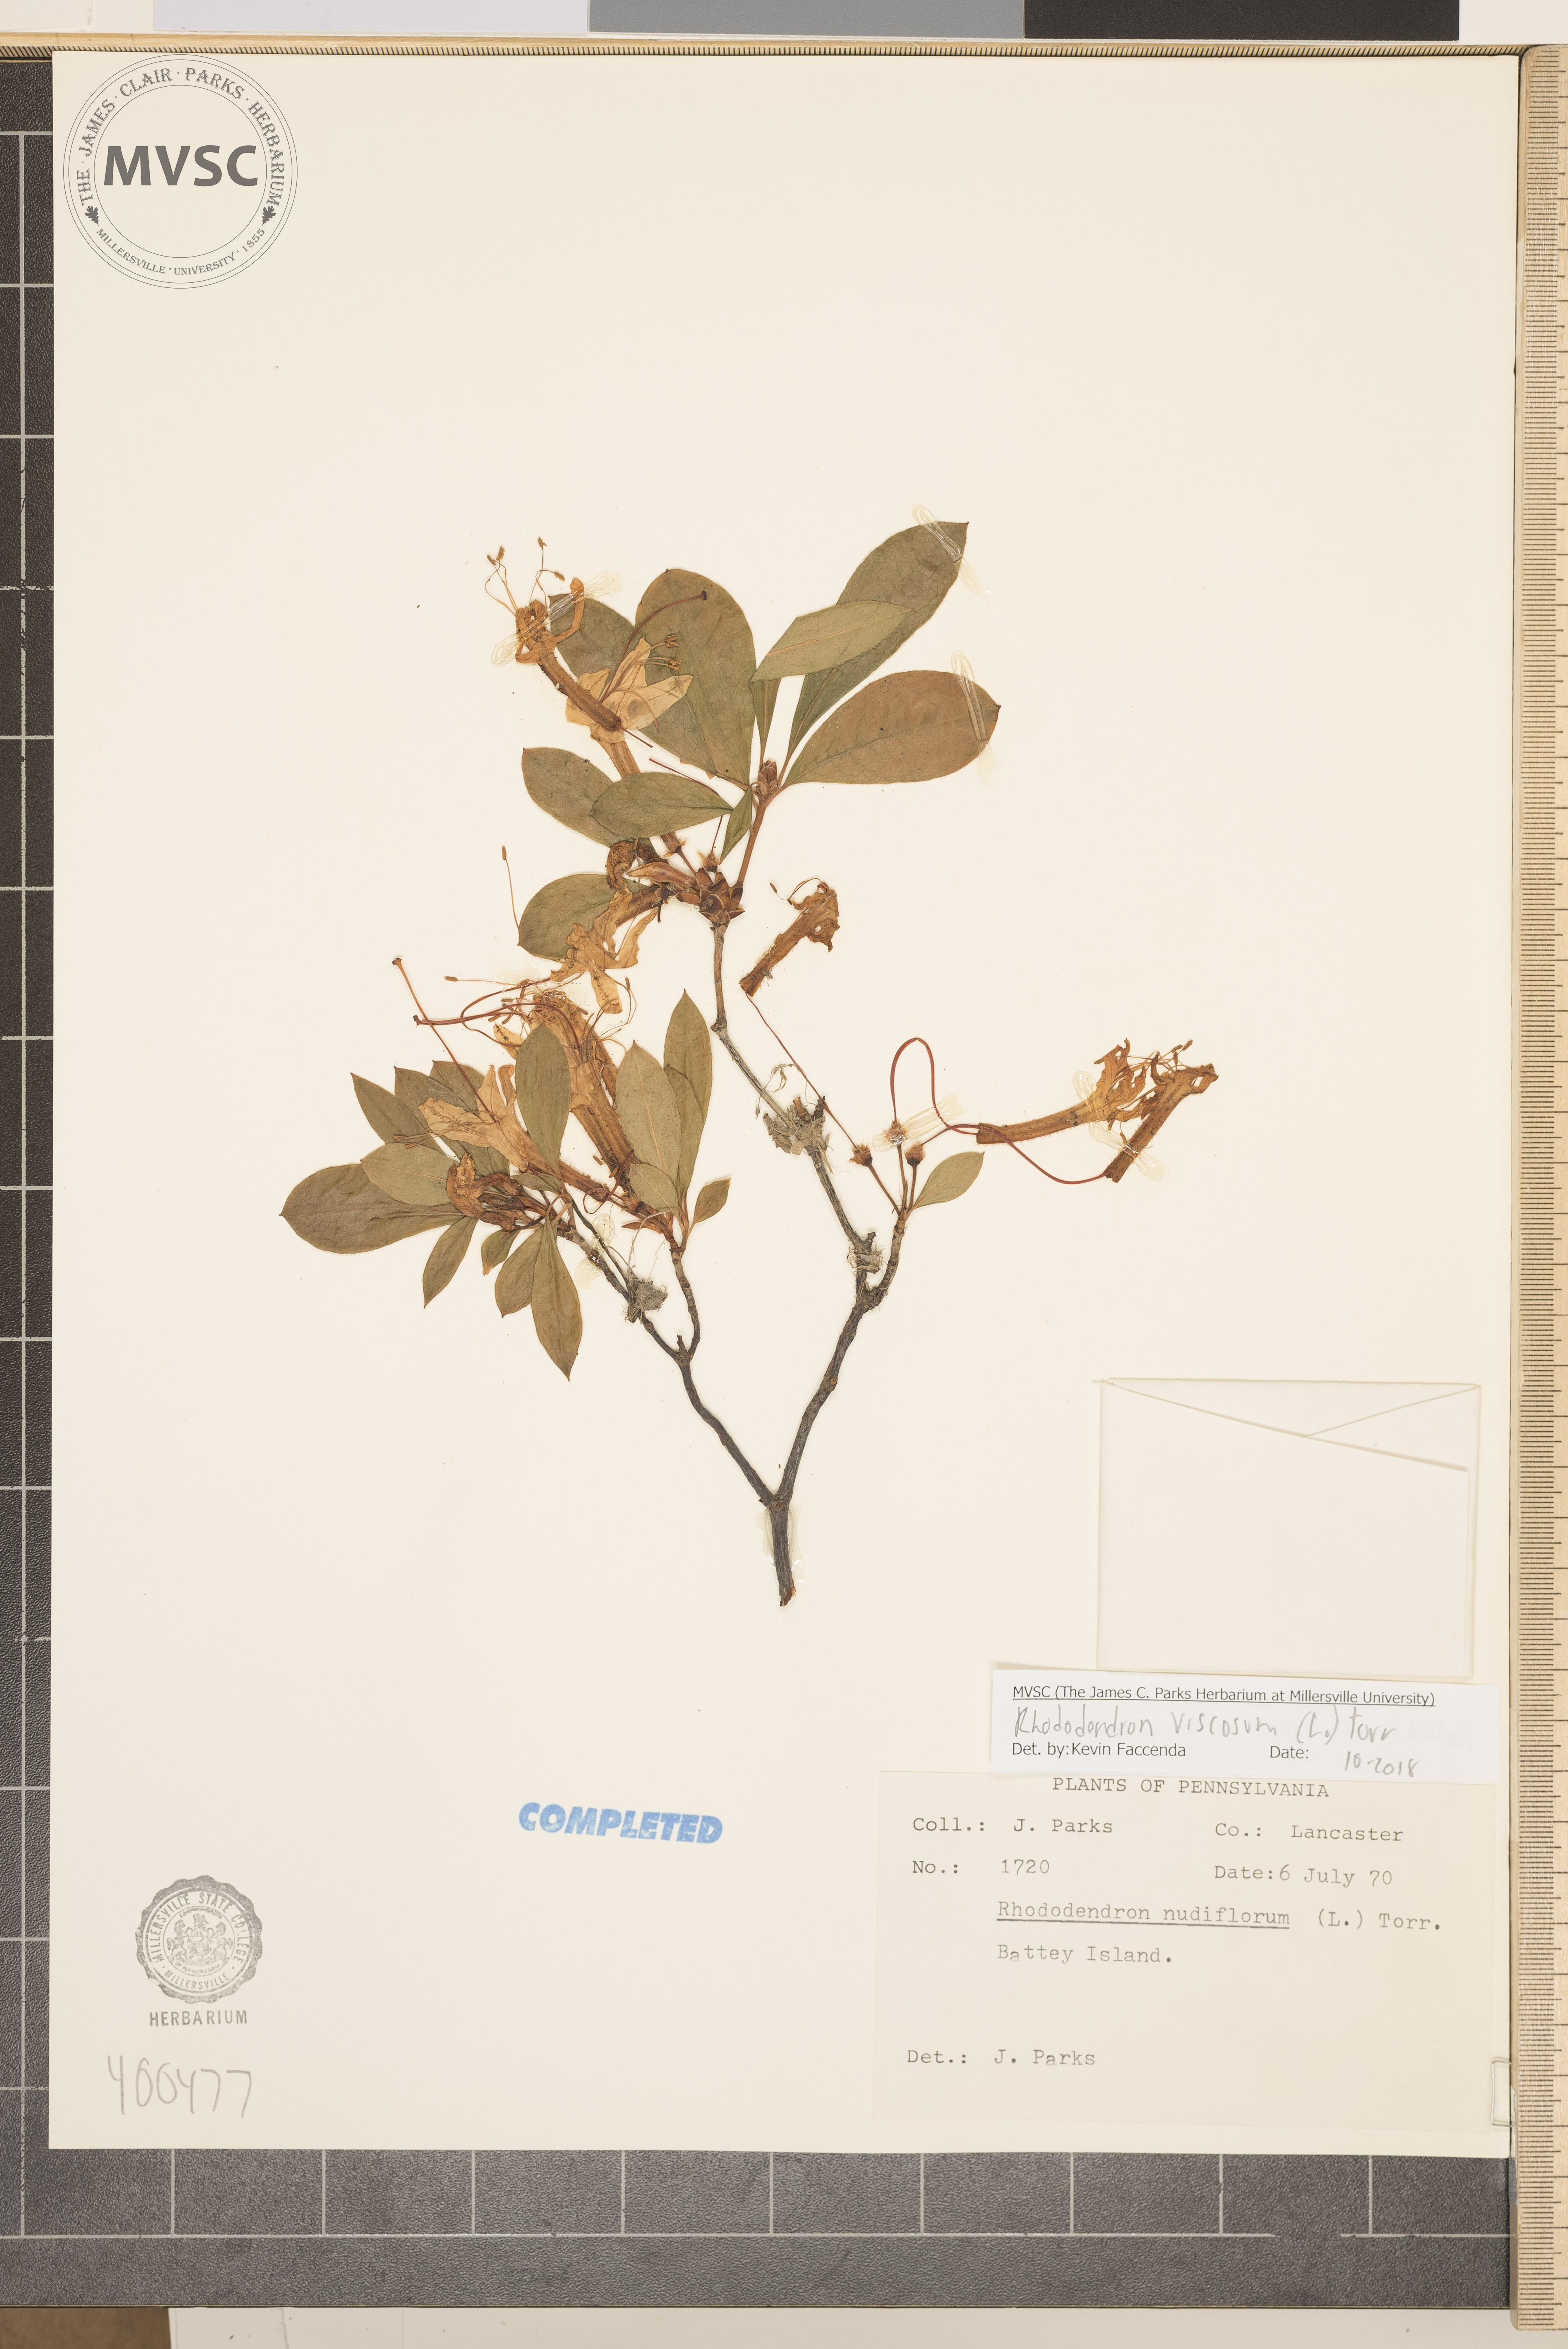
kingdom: Plantae
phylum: Tracheophyta
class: Magnoliopsida
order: Ericales
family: Ericaceae
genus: Rhododendron
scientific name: Rhododendron viscosum
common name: Clammy azalea
